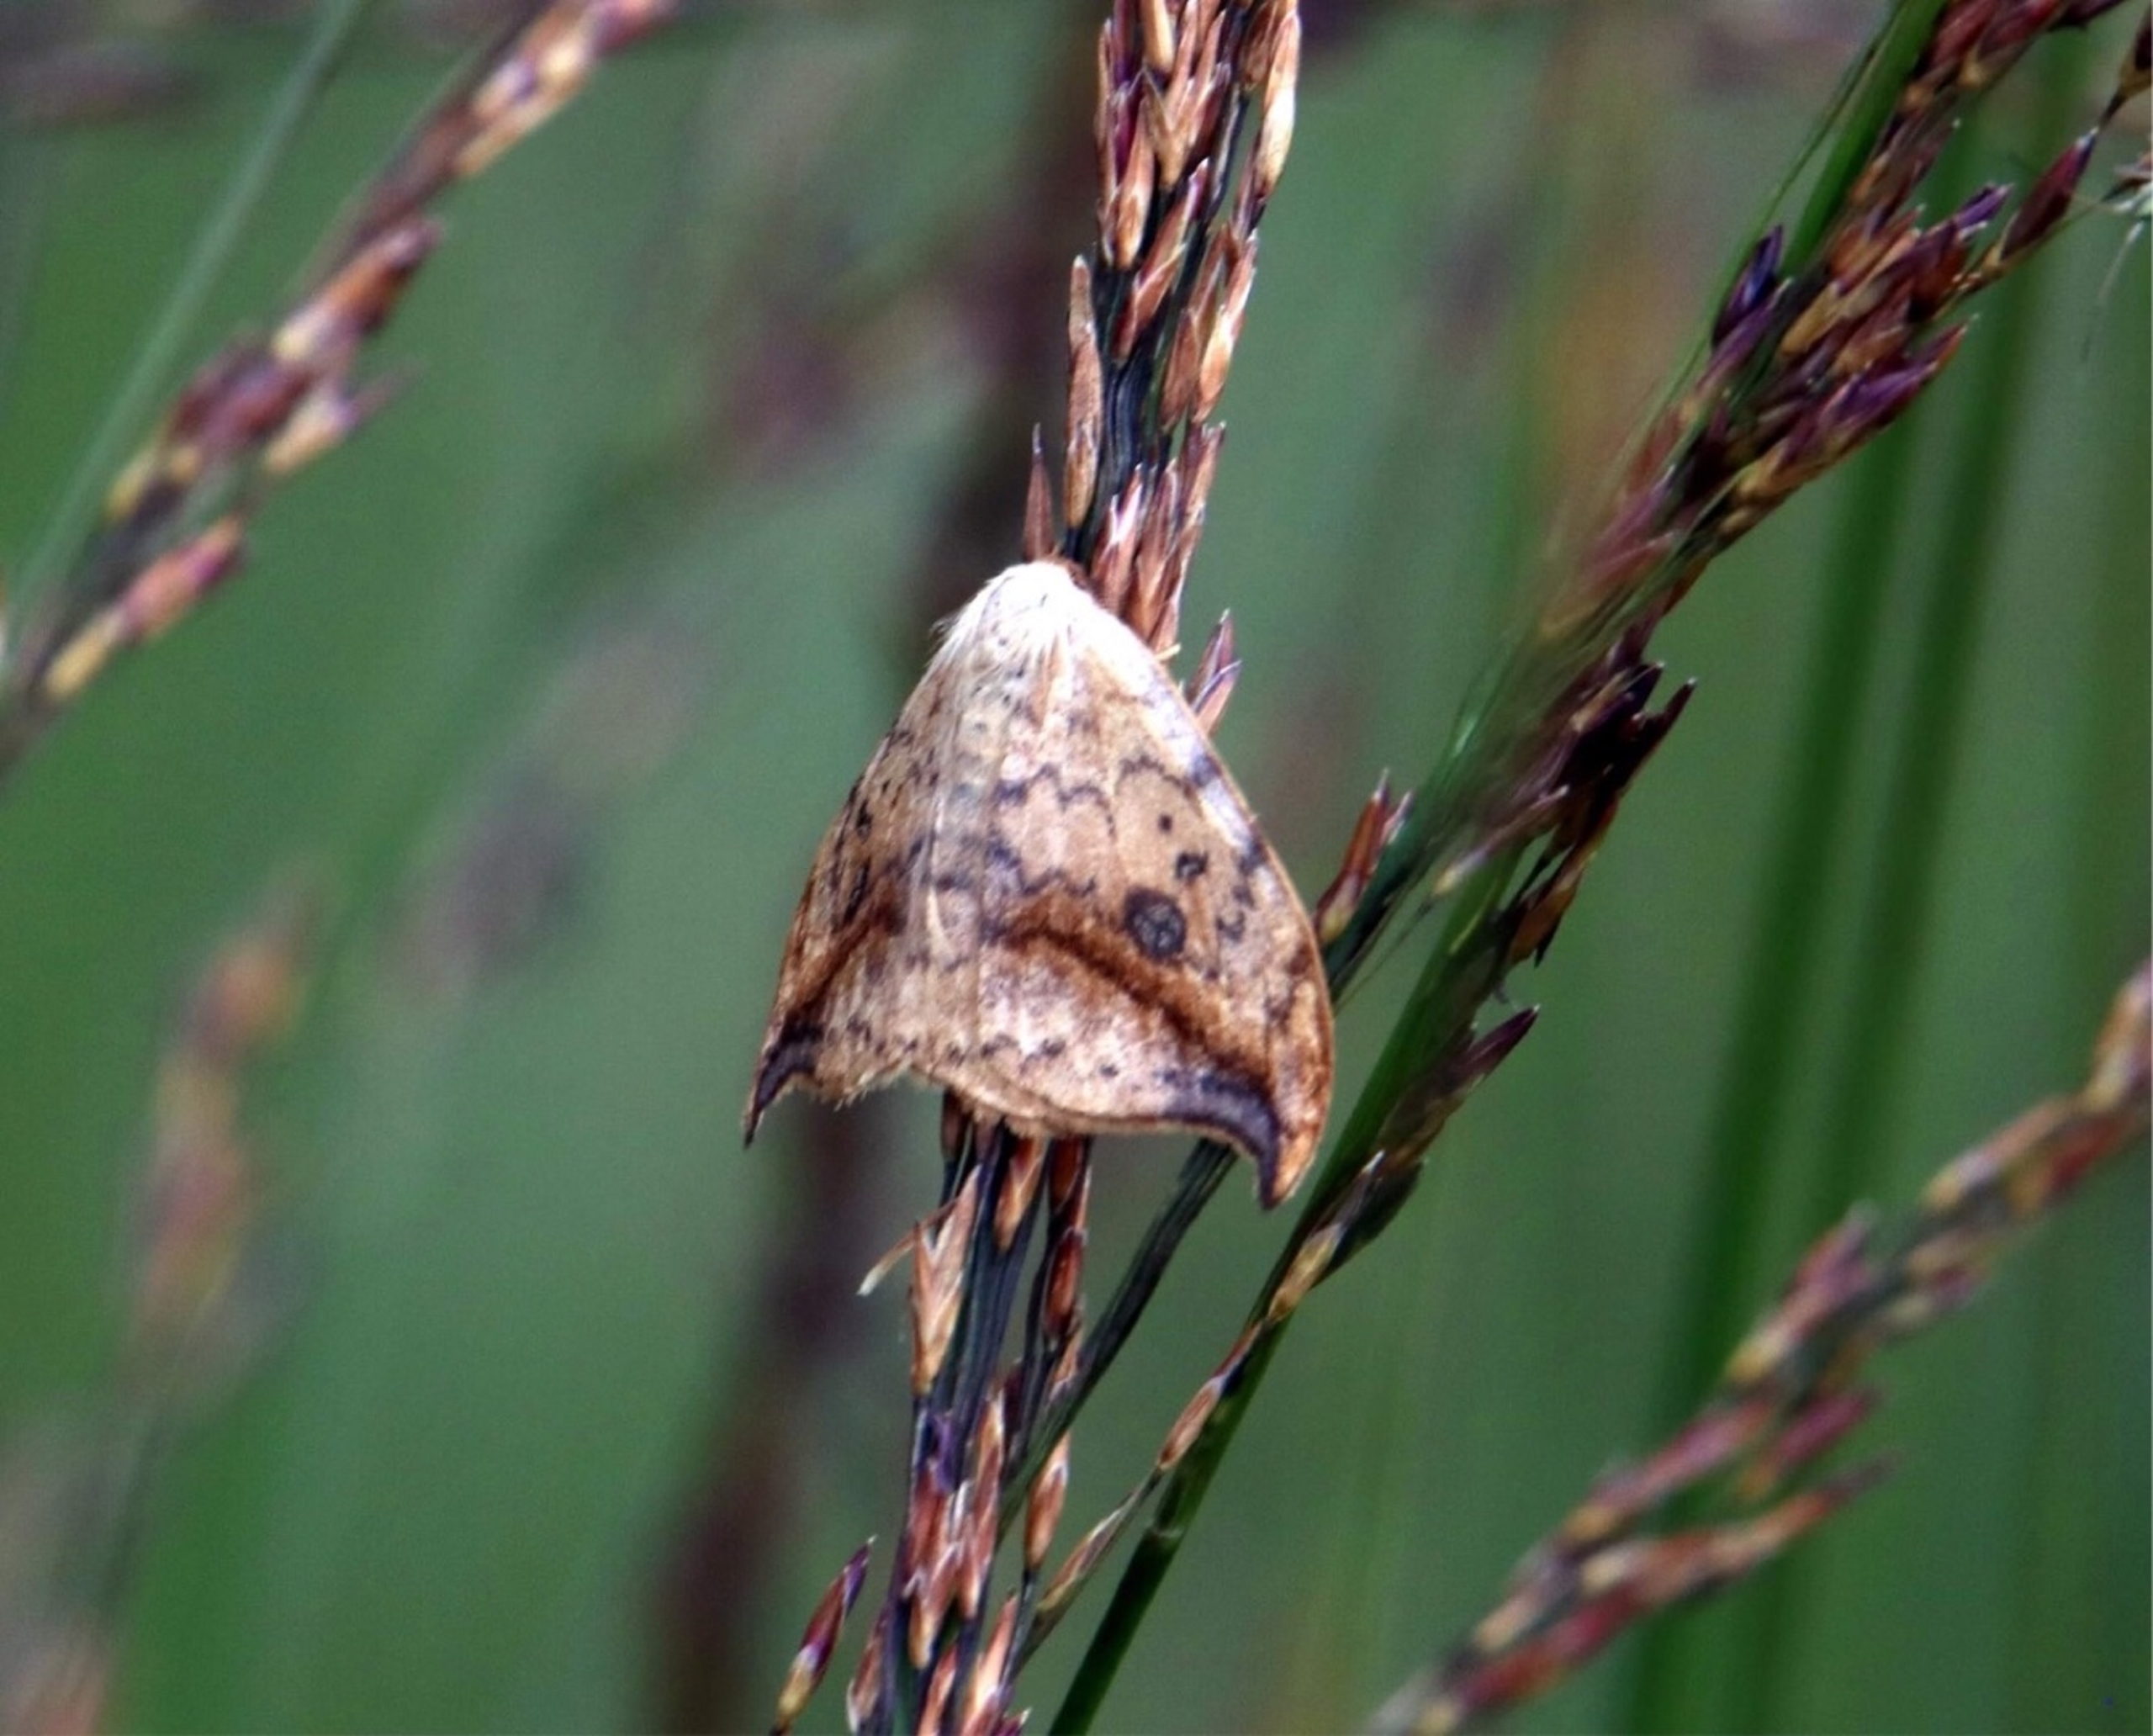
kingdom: Animalia
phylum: Arthropoda
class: Insecta
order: Lepidoptera
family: Drepanidae
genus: Drepana
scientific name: Drepana falcataria
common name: Birkeseglvinge
